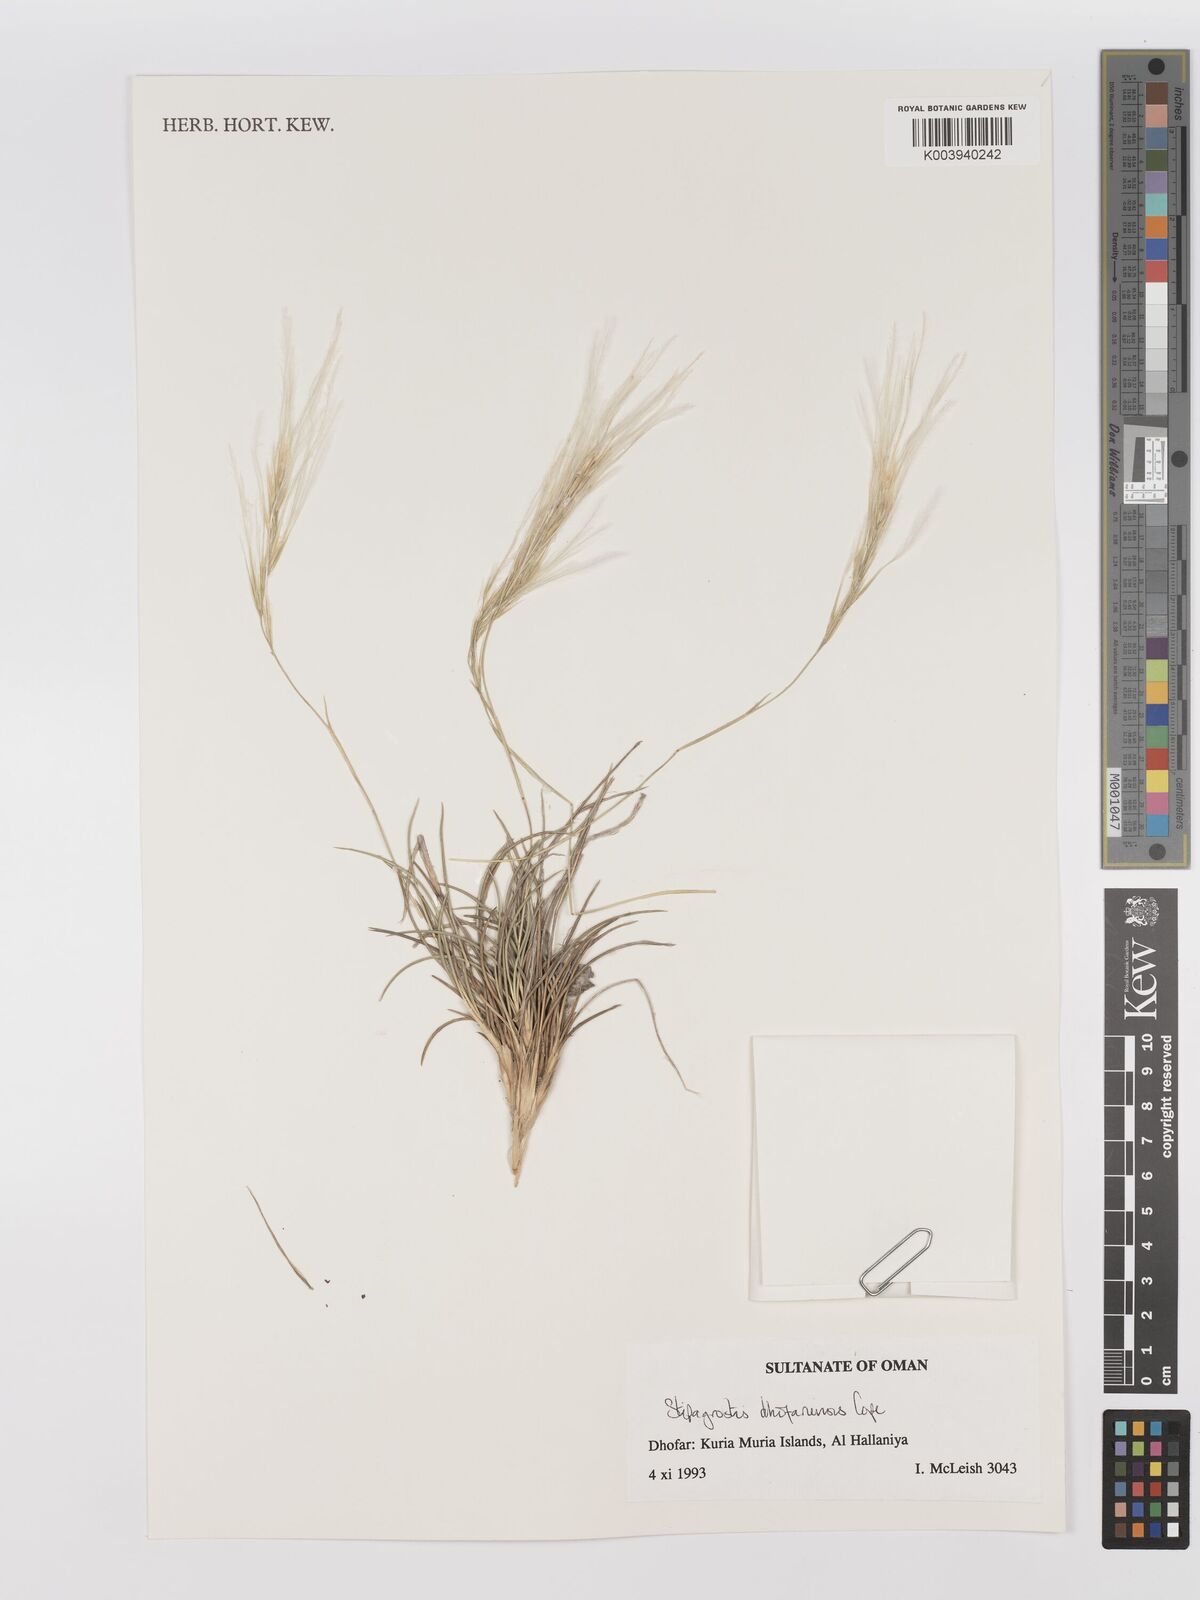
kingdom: Plantae
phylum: Tracheophyta
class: Liliopsida
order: Poales
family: Poaceae
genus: Stipagrostis
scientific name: Stipagrostis dhofariensis
